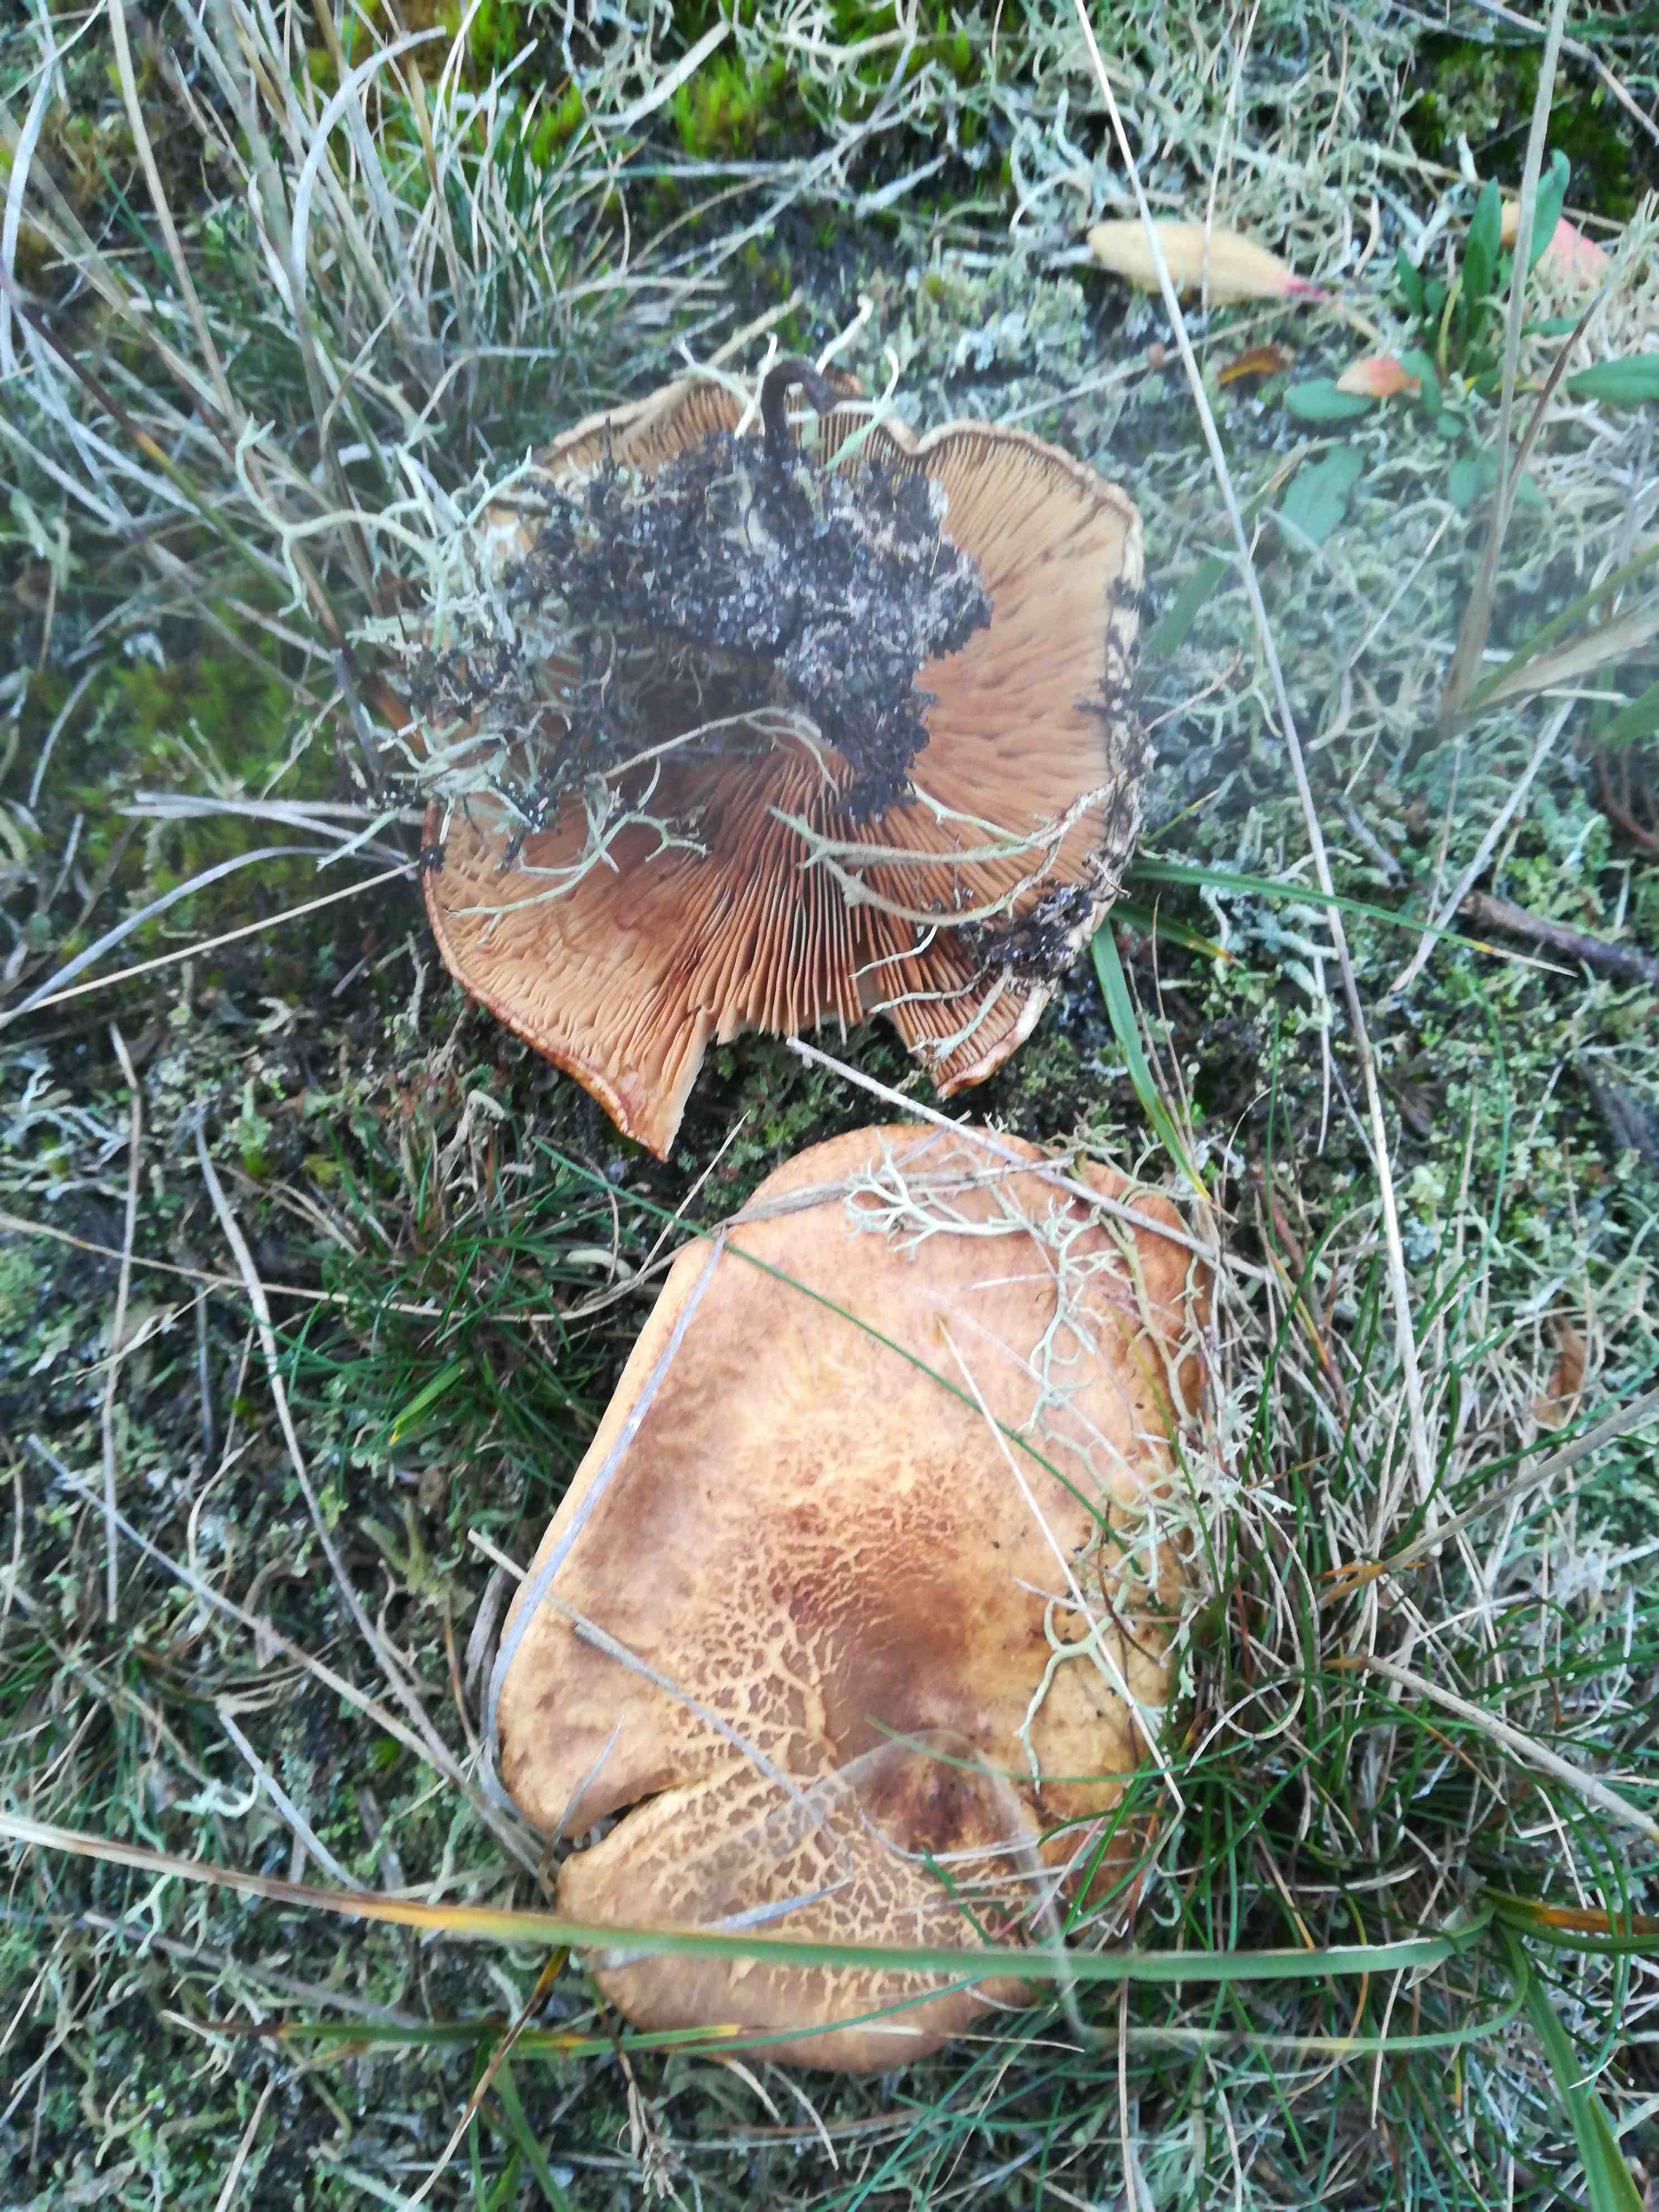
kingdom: Fungi
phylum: Basidiomycota
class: Agaricomycetes
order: Boletales
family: Paxillaceae
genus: Paxillus
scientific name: Paxillus
